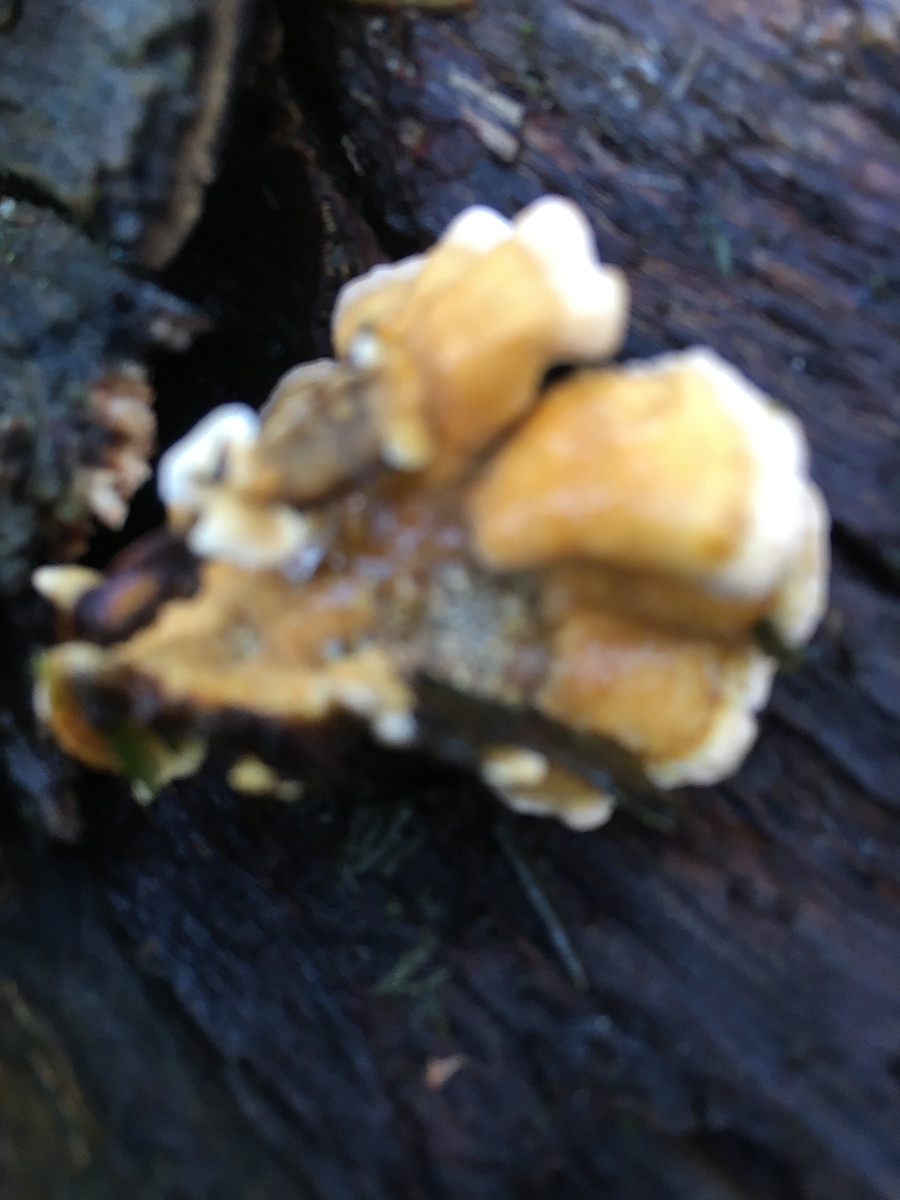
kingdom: Fungi
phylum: Basidiomycota
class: Agaricomycetes
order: Russulales
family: Stereaceae
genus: Stereum
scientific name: Stereum hirsutum
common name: håret lædersvamp
